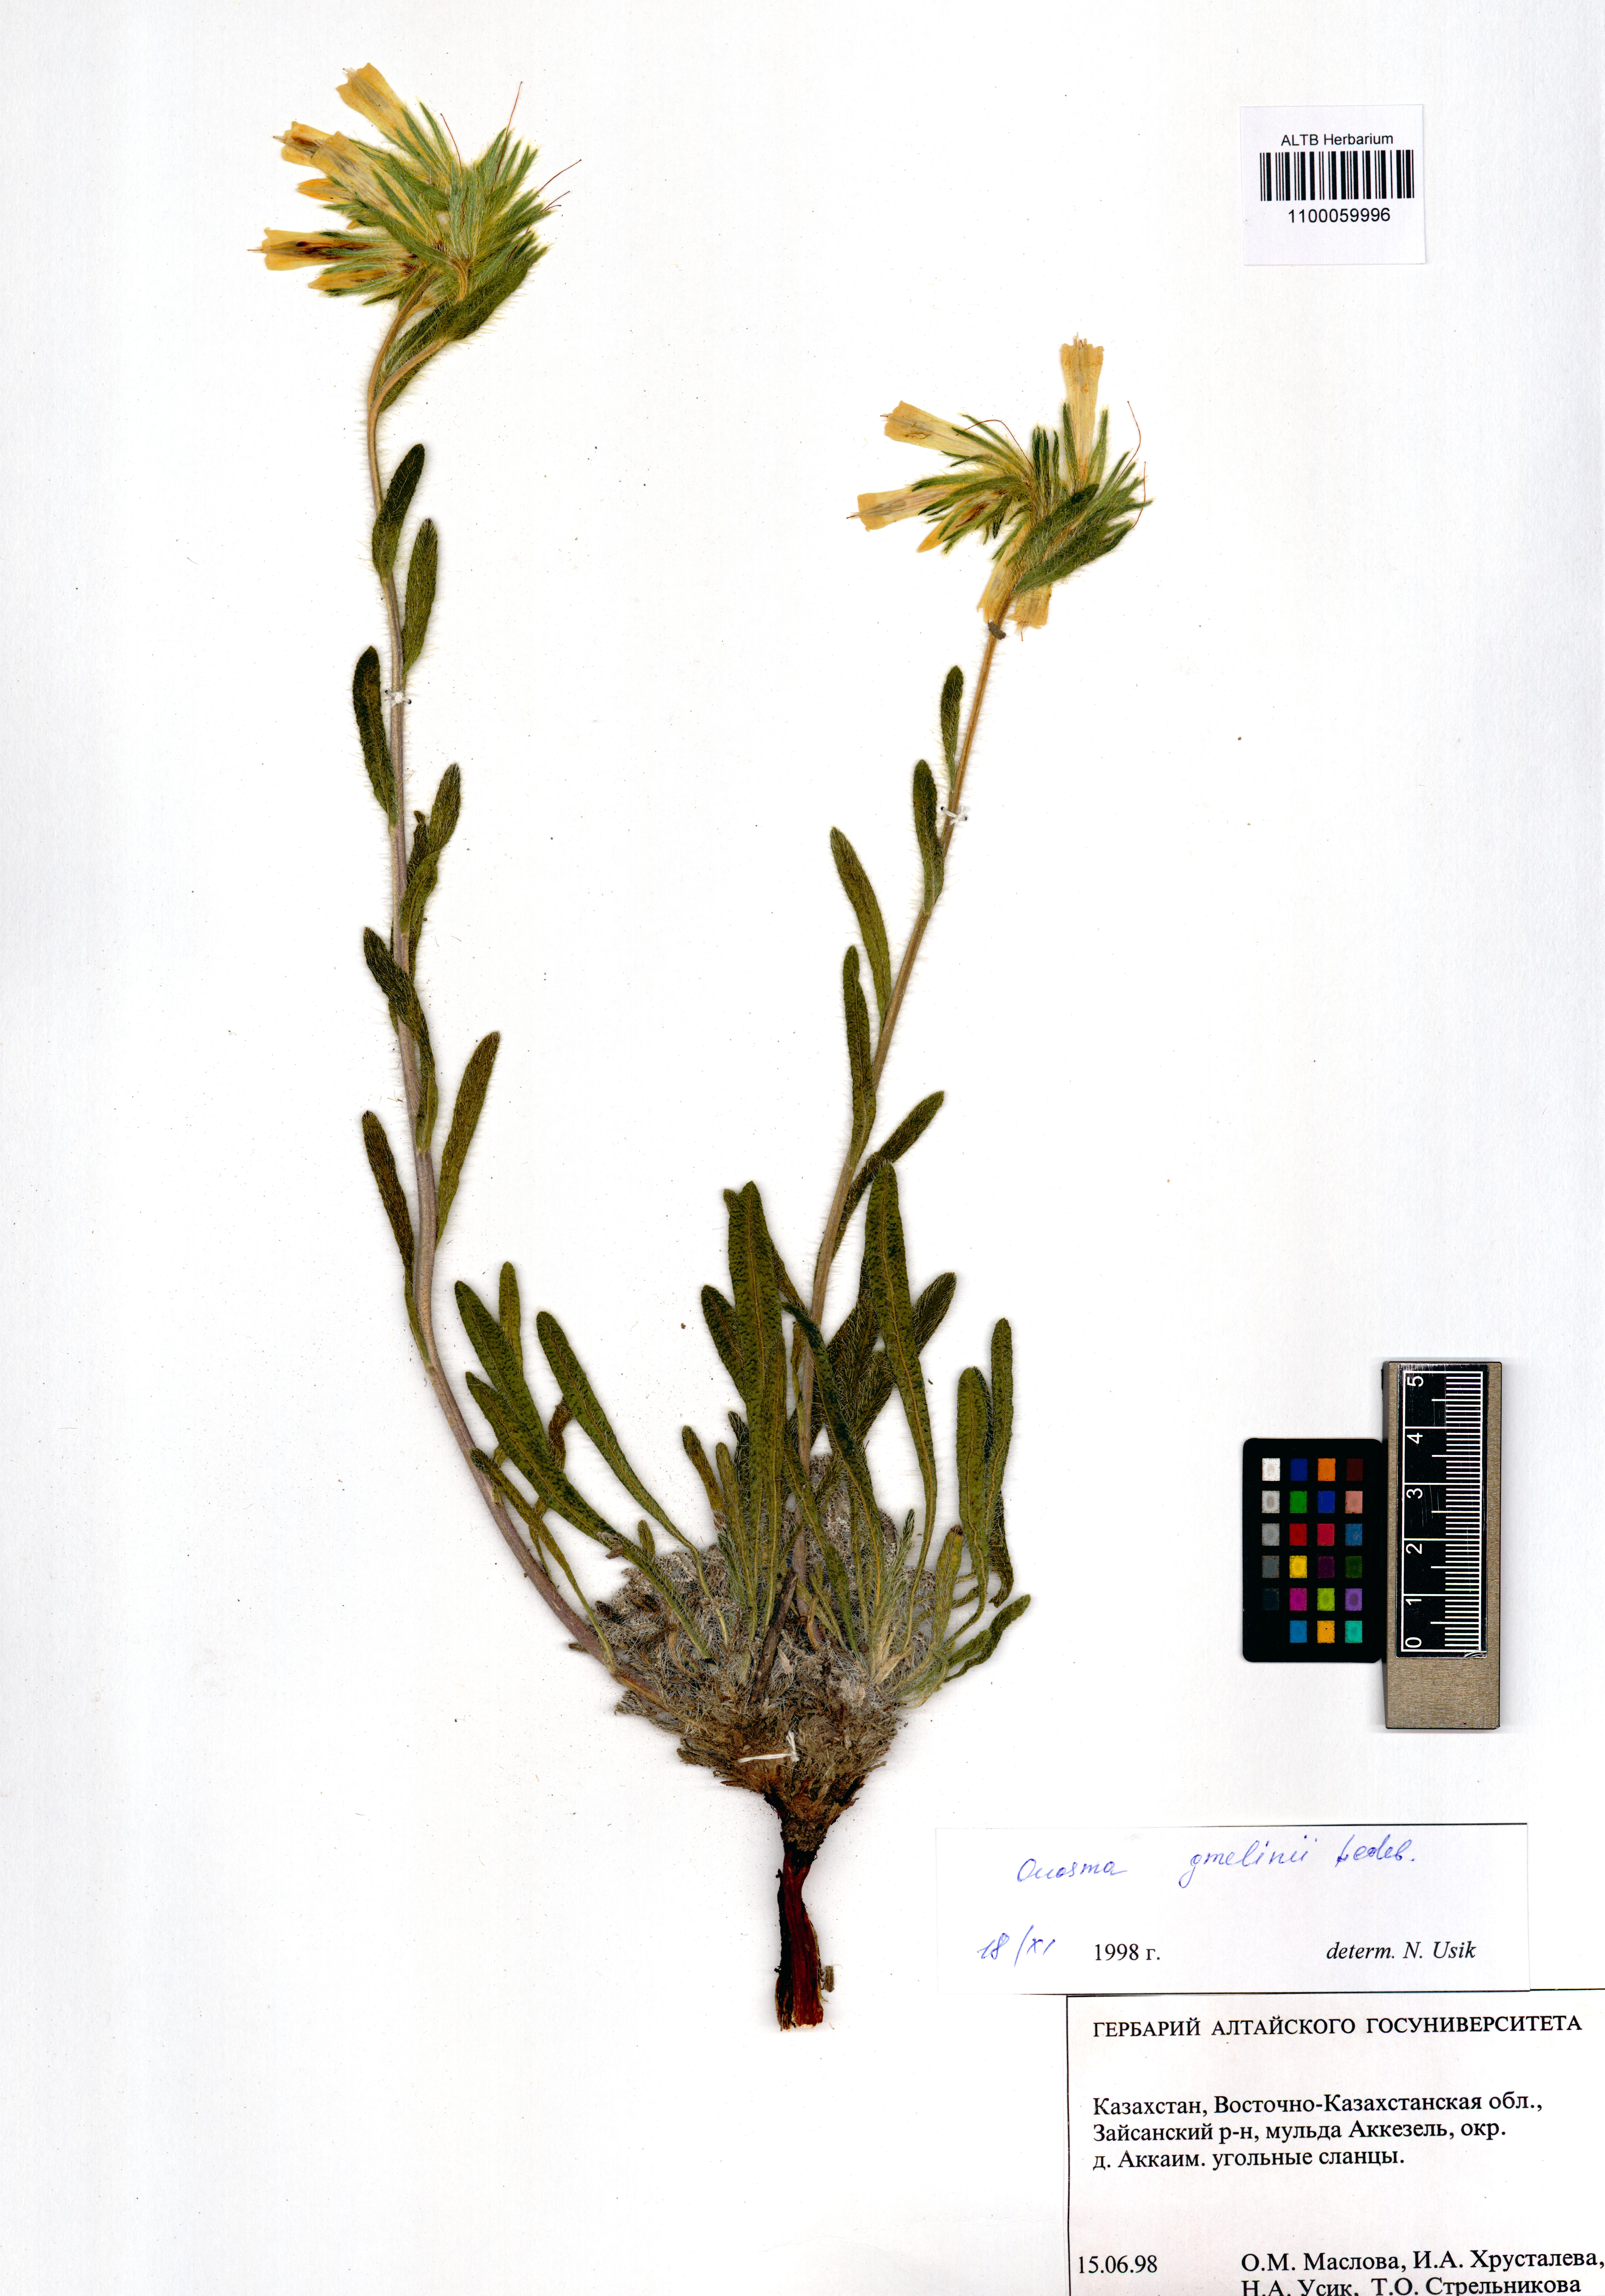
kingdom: Plantae
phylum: Tracheophyta
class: Magnoliopsida
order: Boraginales
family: Boraginaceae
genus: Onosma
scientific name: Onosma gmelinii
